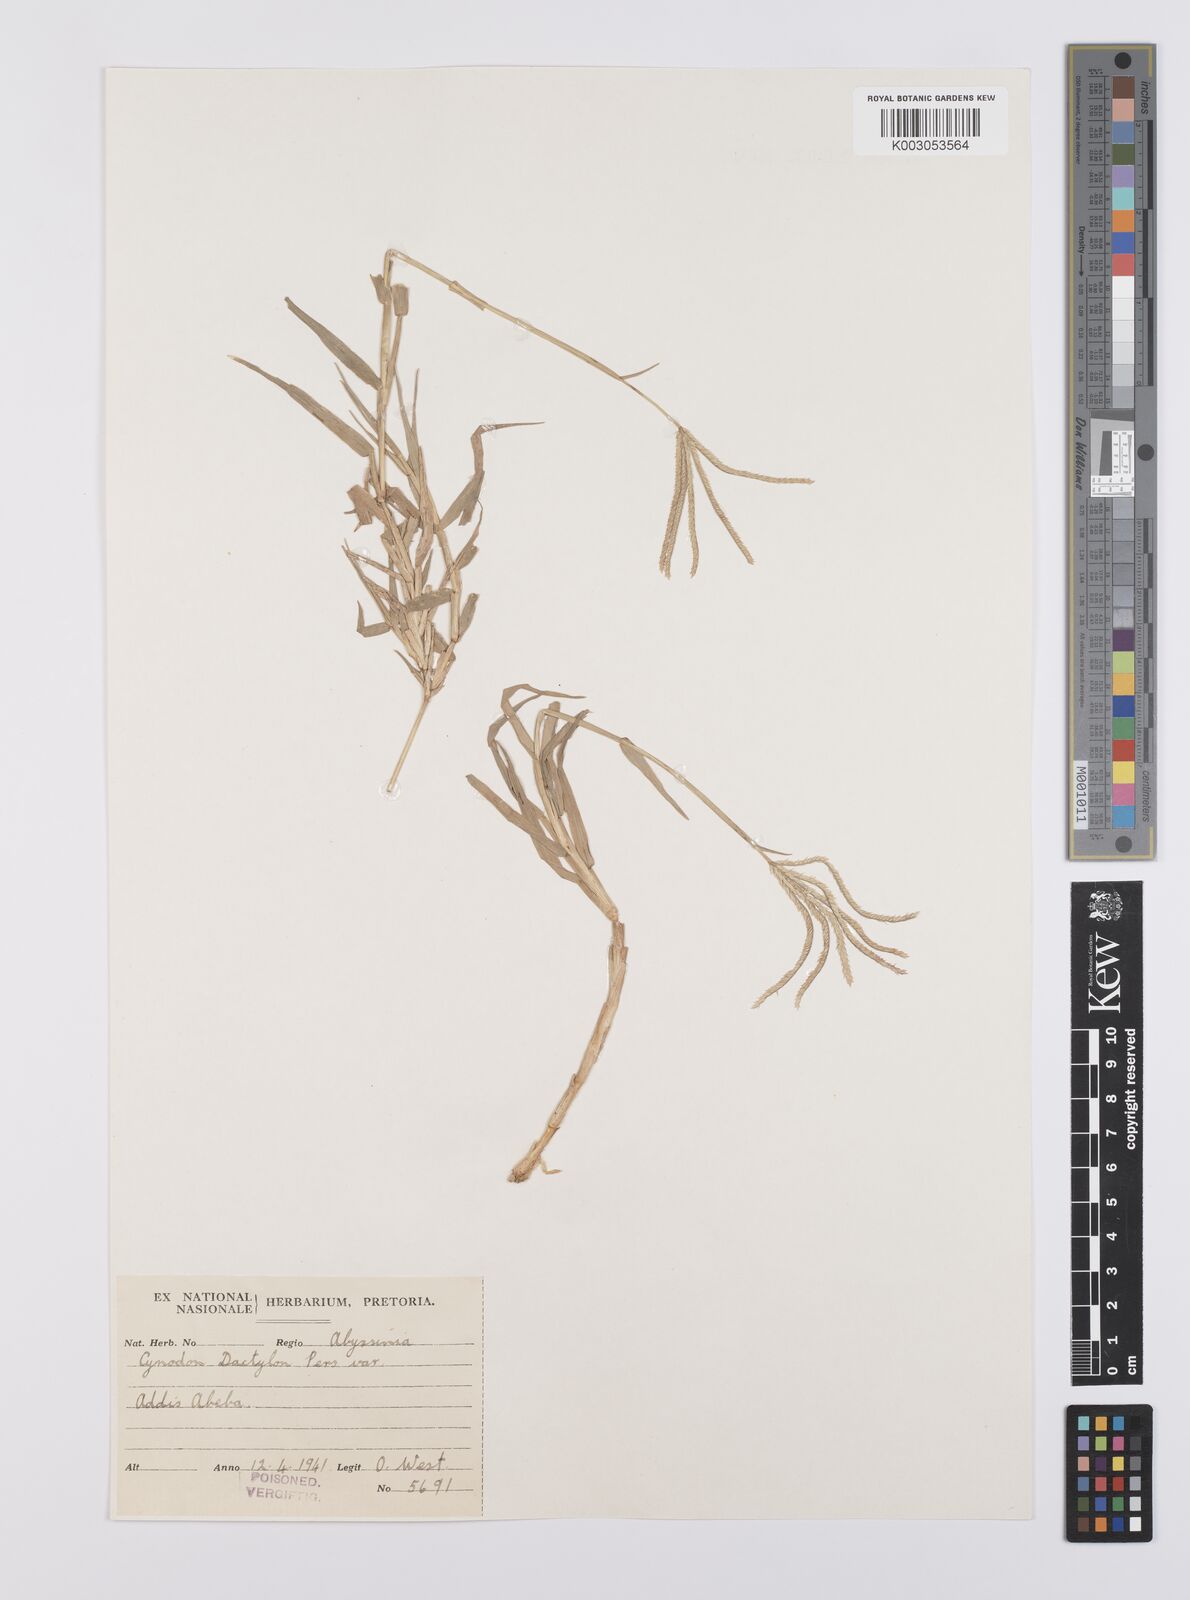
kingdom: Plantae
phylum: Tracheophyta
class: Liliopsida
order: Poales
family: Poaceae
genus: Cynodon
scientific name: Cynodon dactylon
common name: Bermuda grass
